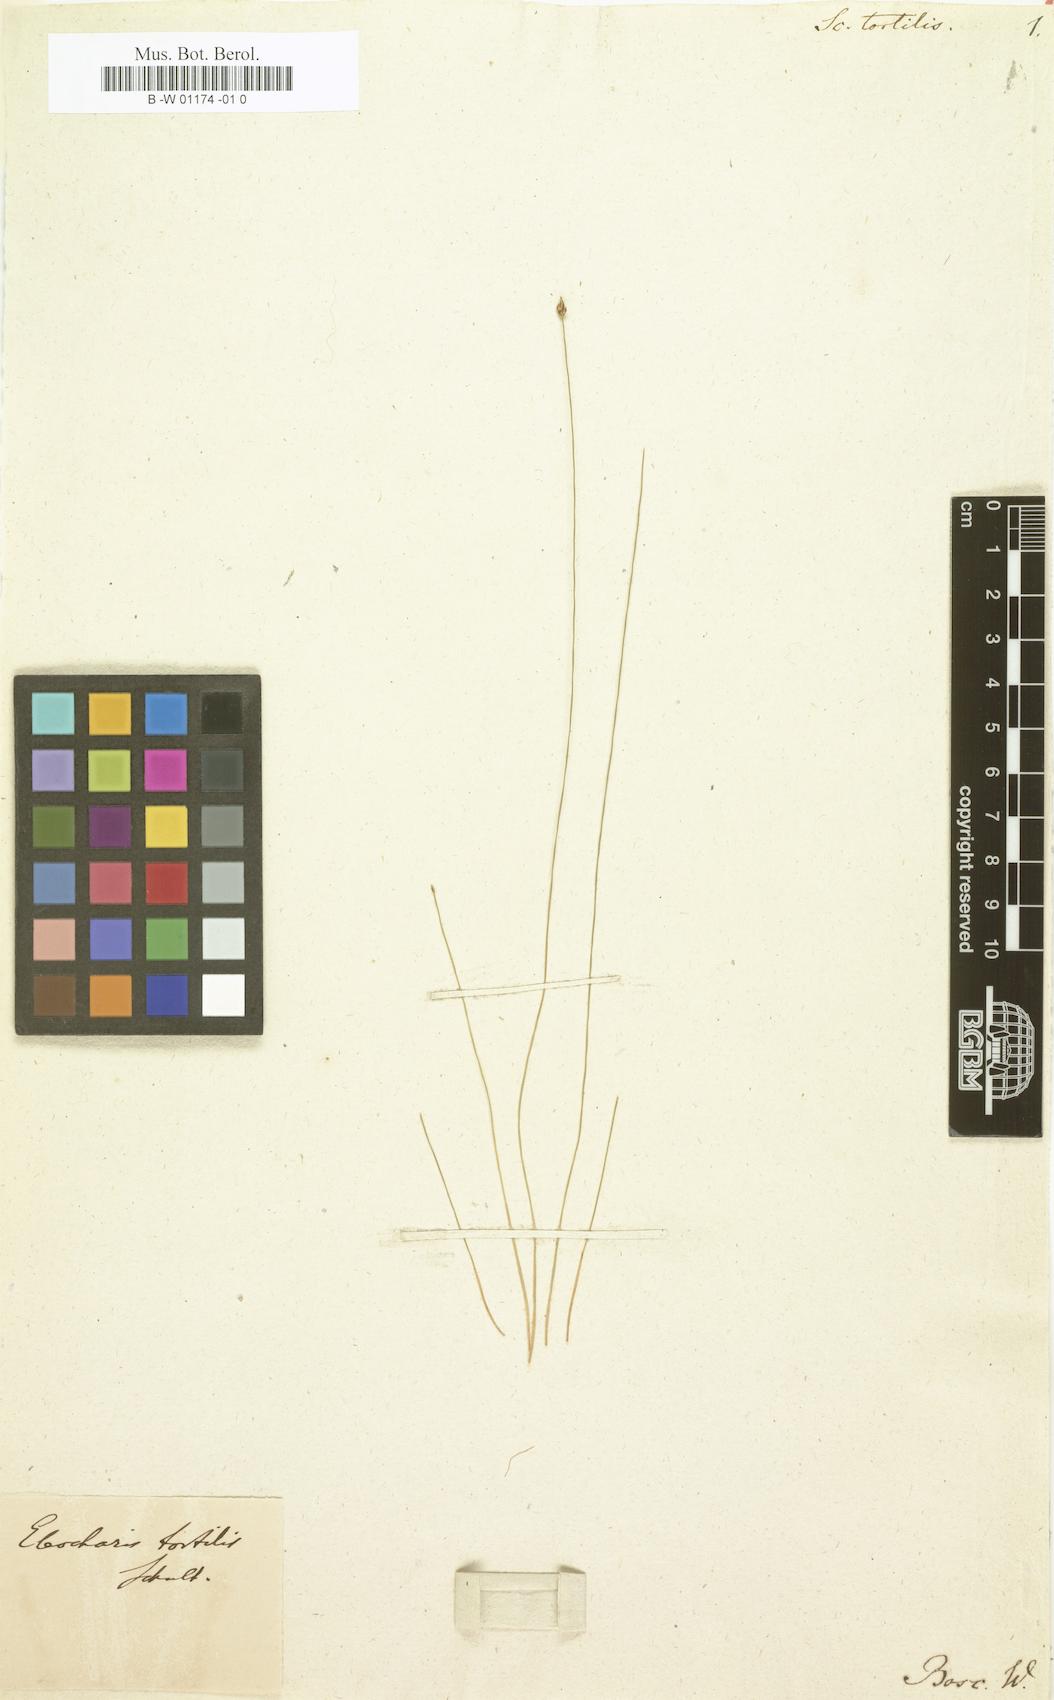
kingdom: Plantae
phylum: Tracheophyta
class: Liliopsida
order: Poales
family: Cyperaceae
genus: Scirpus
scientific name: Scirpus tortilis
